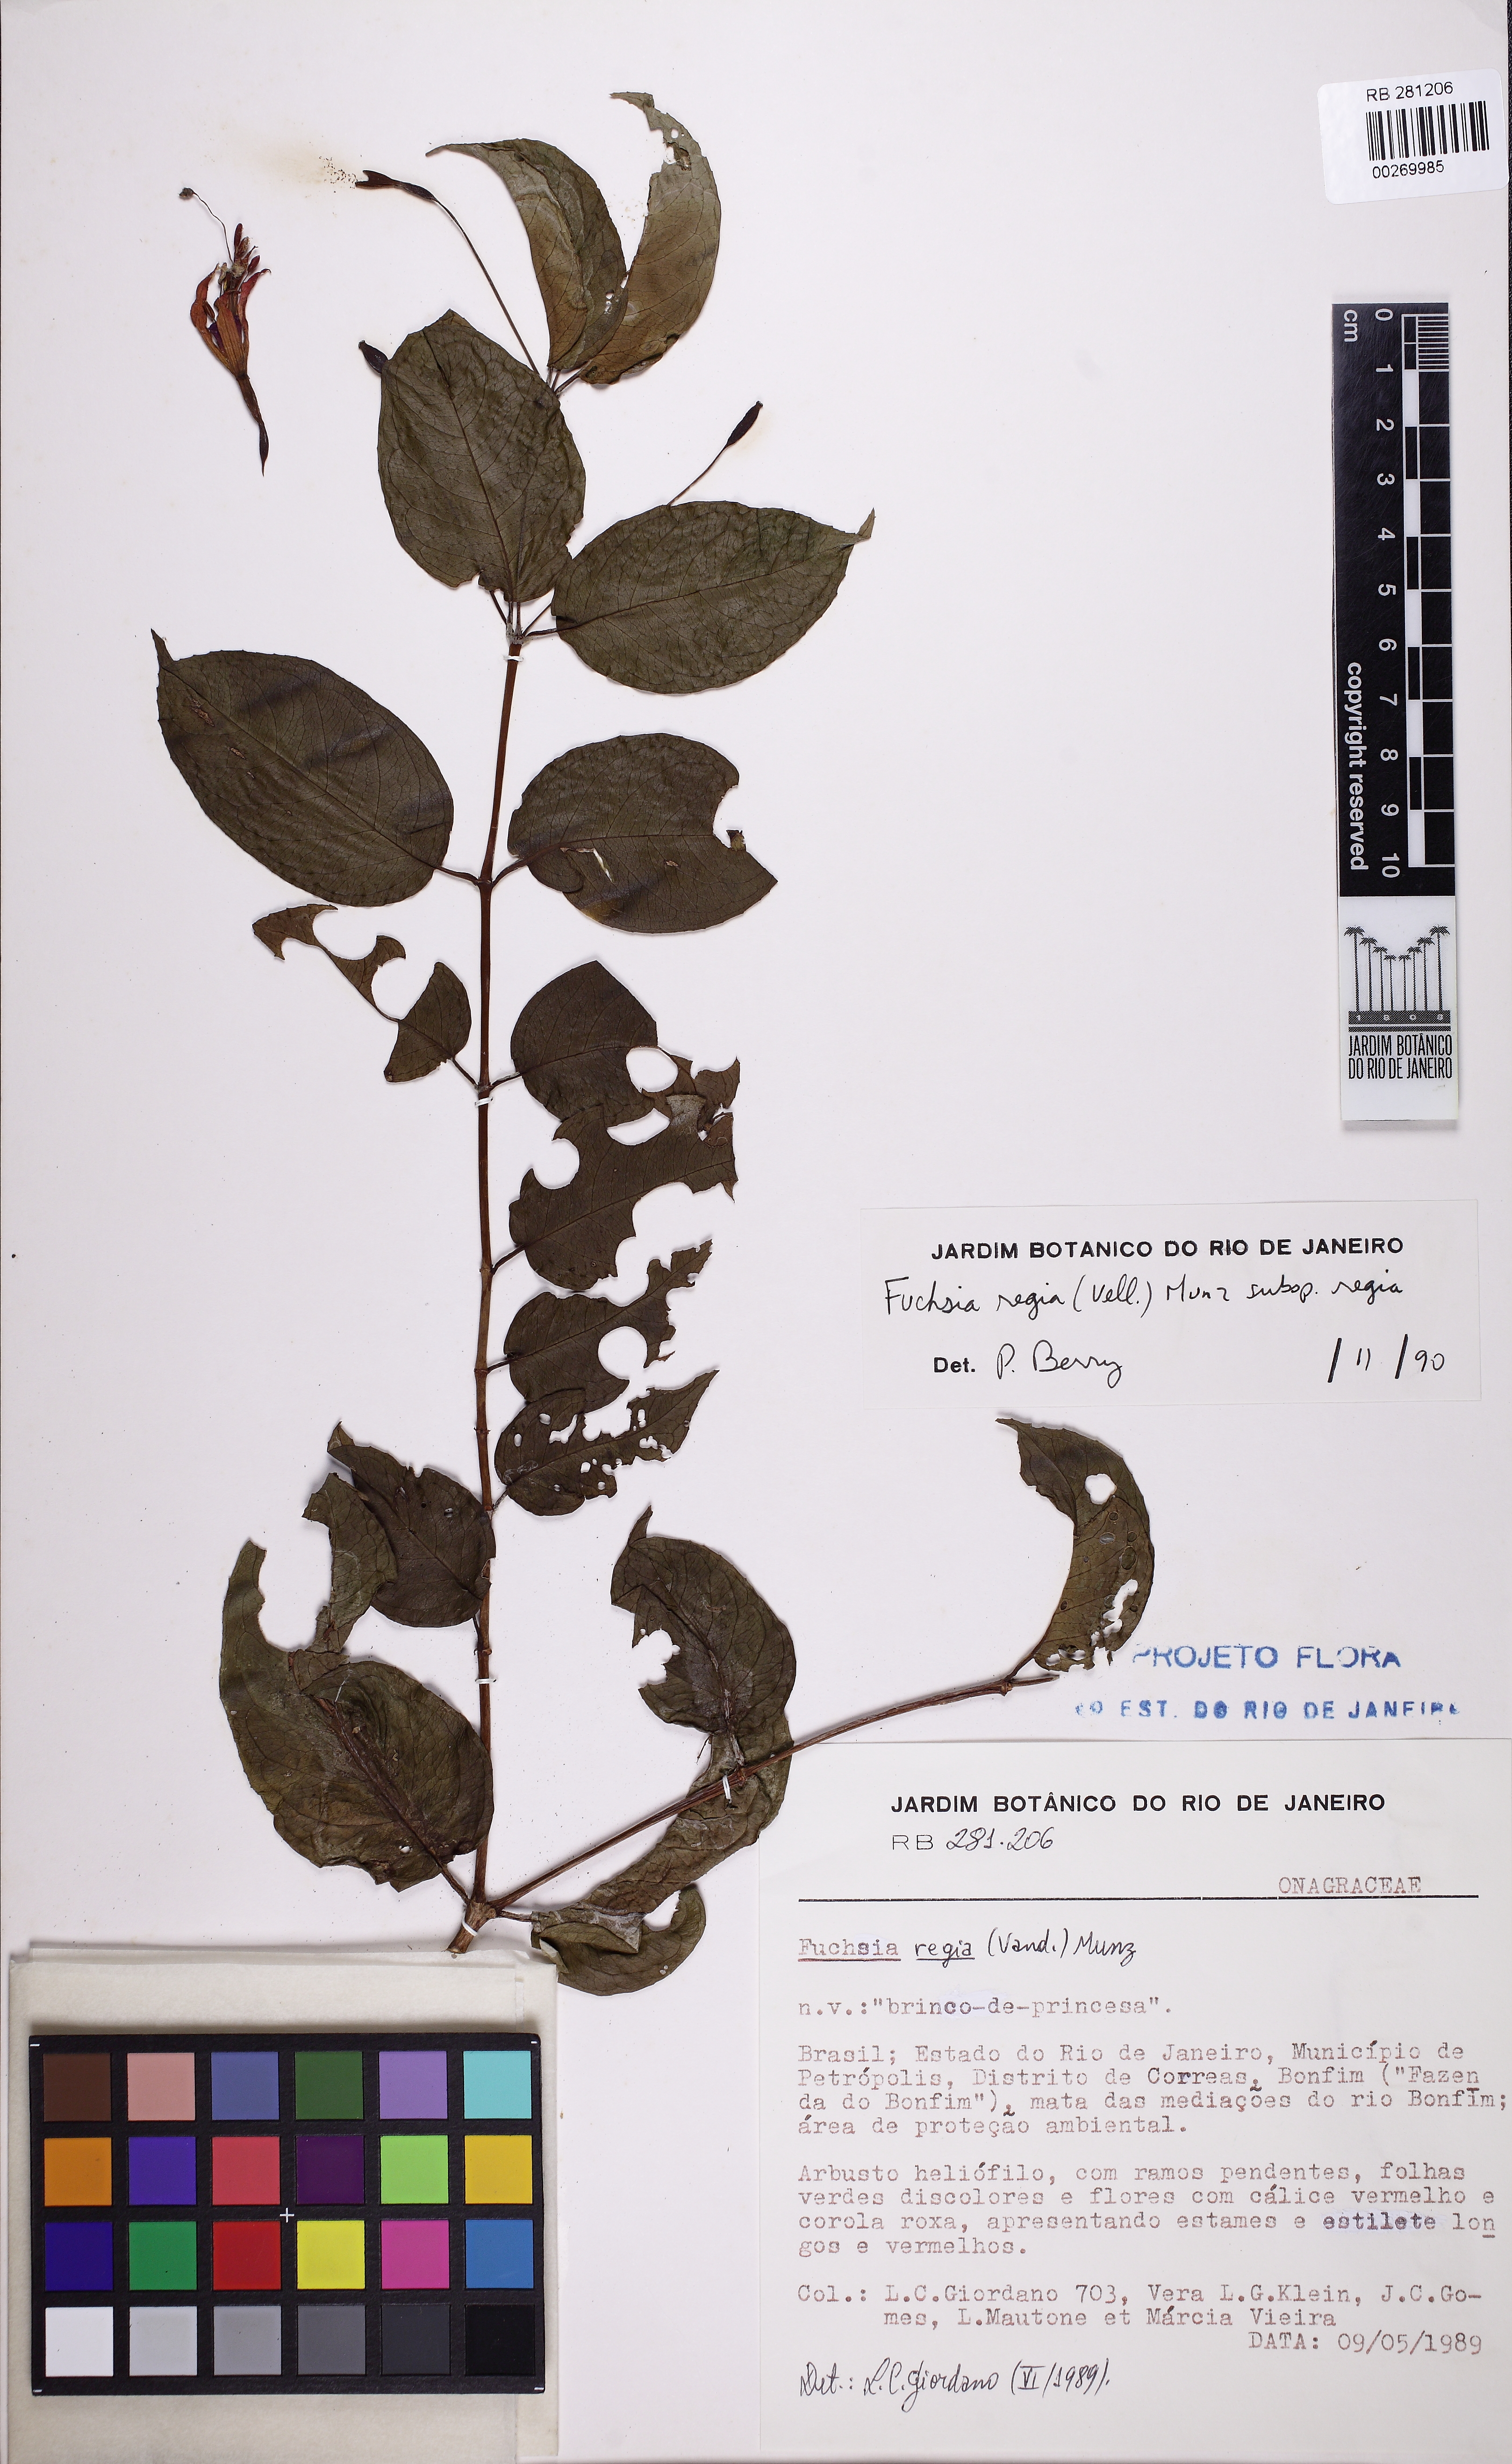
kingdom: Plantae
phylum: Tracheophyta
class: Magnoliopsida
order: Myrtales
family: Onagraceae
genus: Fuchsia
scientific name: Fuchsia regia
